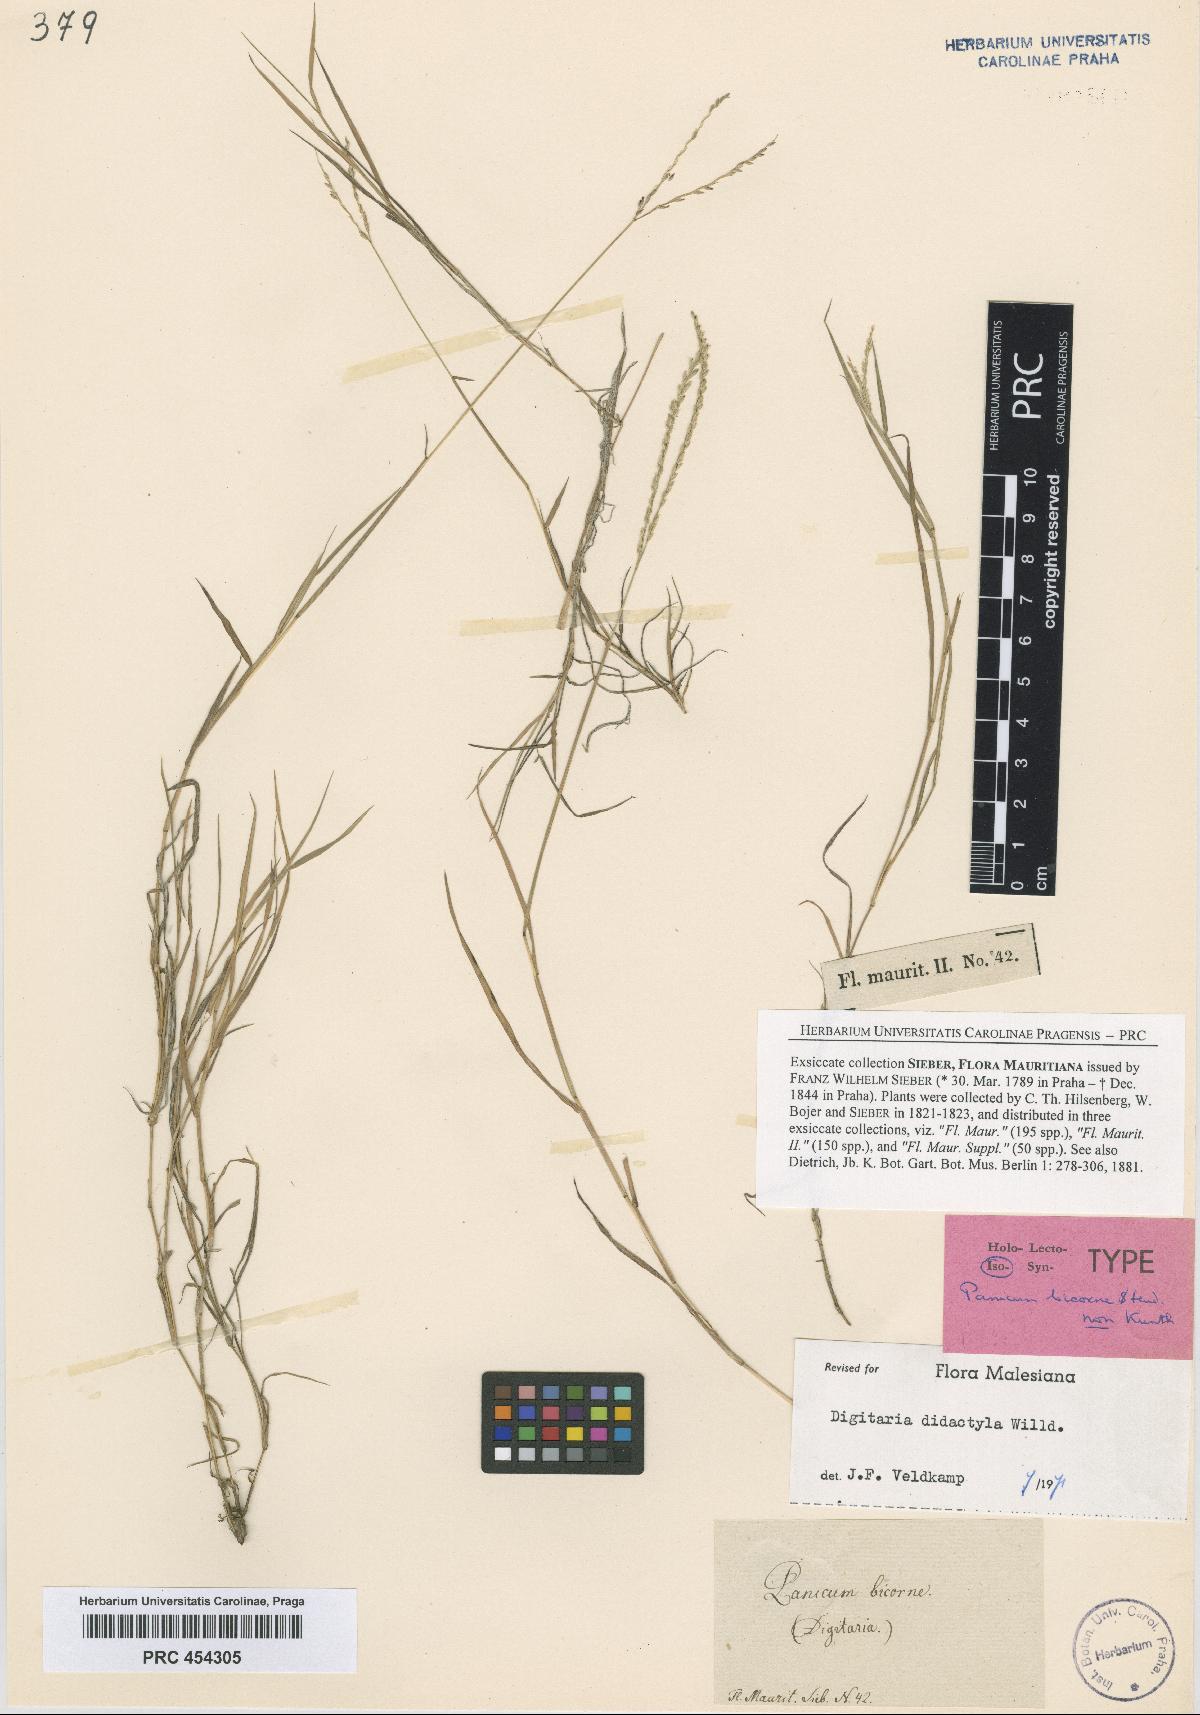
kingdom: Plantae
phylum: Tracheophyta
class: Liliopsida
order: Poales
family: Poaceae
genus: Digitaria
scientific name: Digitaria didactyla
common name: Blue couch
